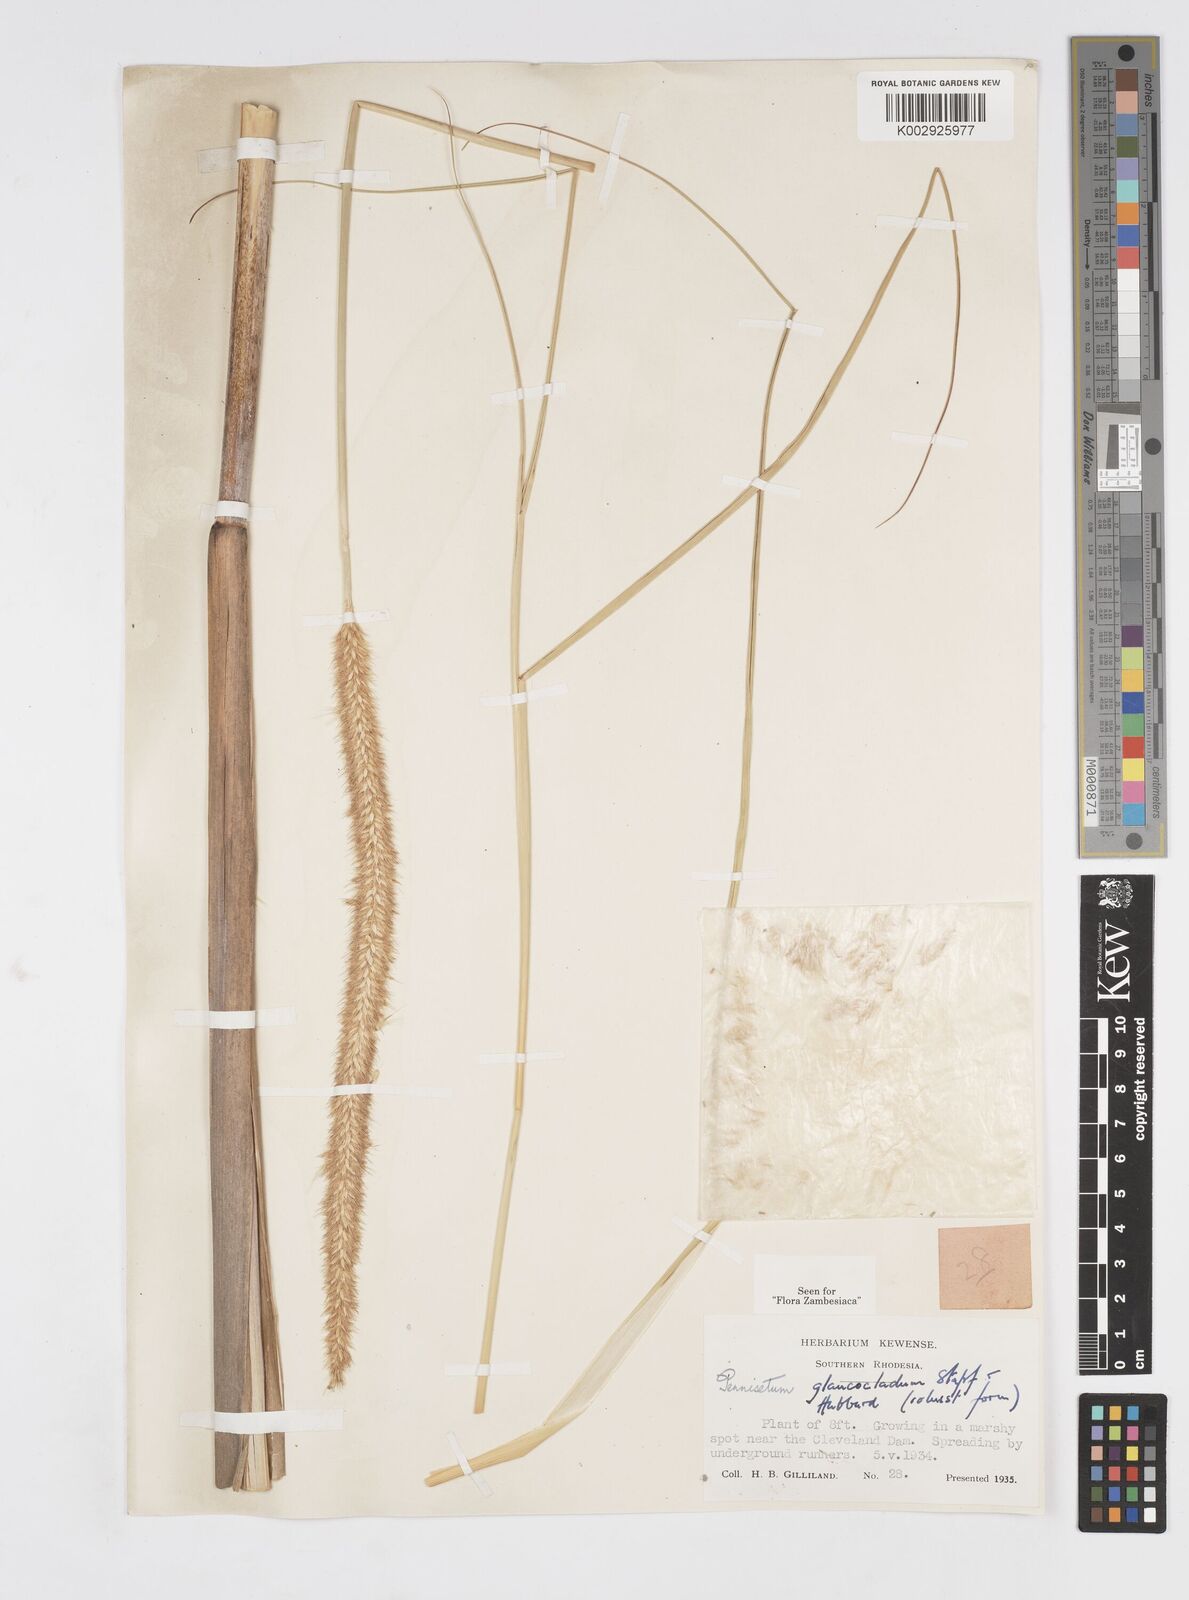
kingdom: Plantae
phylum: Tracheophyta
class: Liliopsida
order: Poales
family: Poaceae
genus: Cenchrus
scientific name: Cenchrus caudatus
